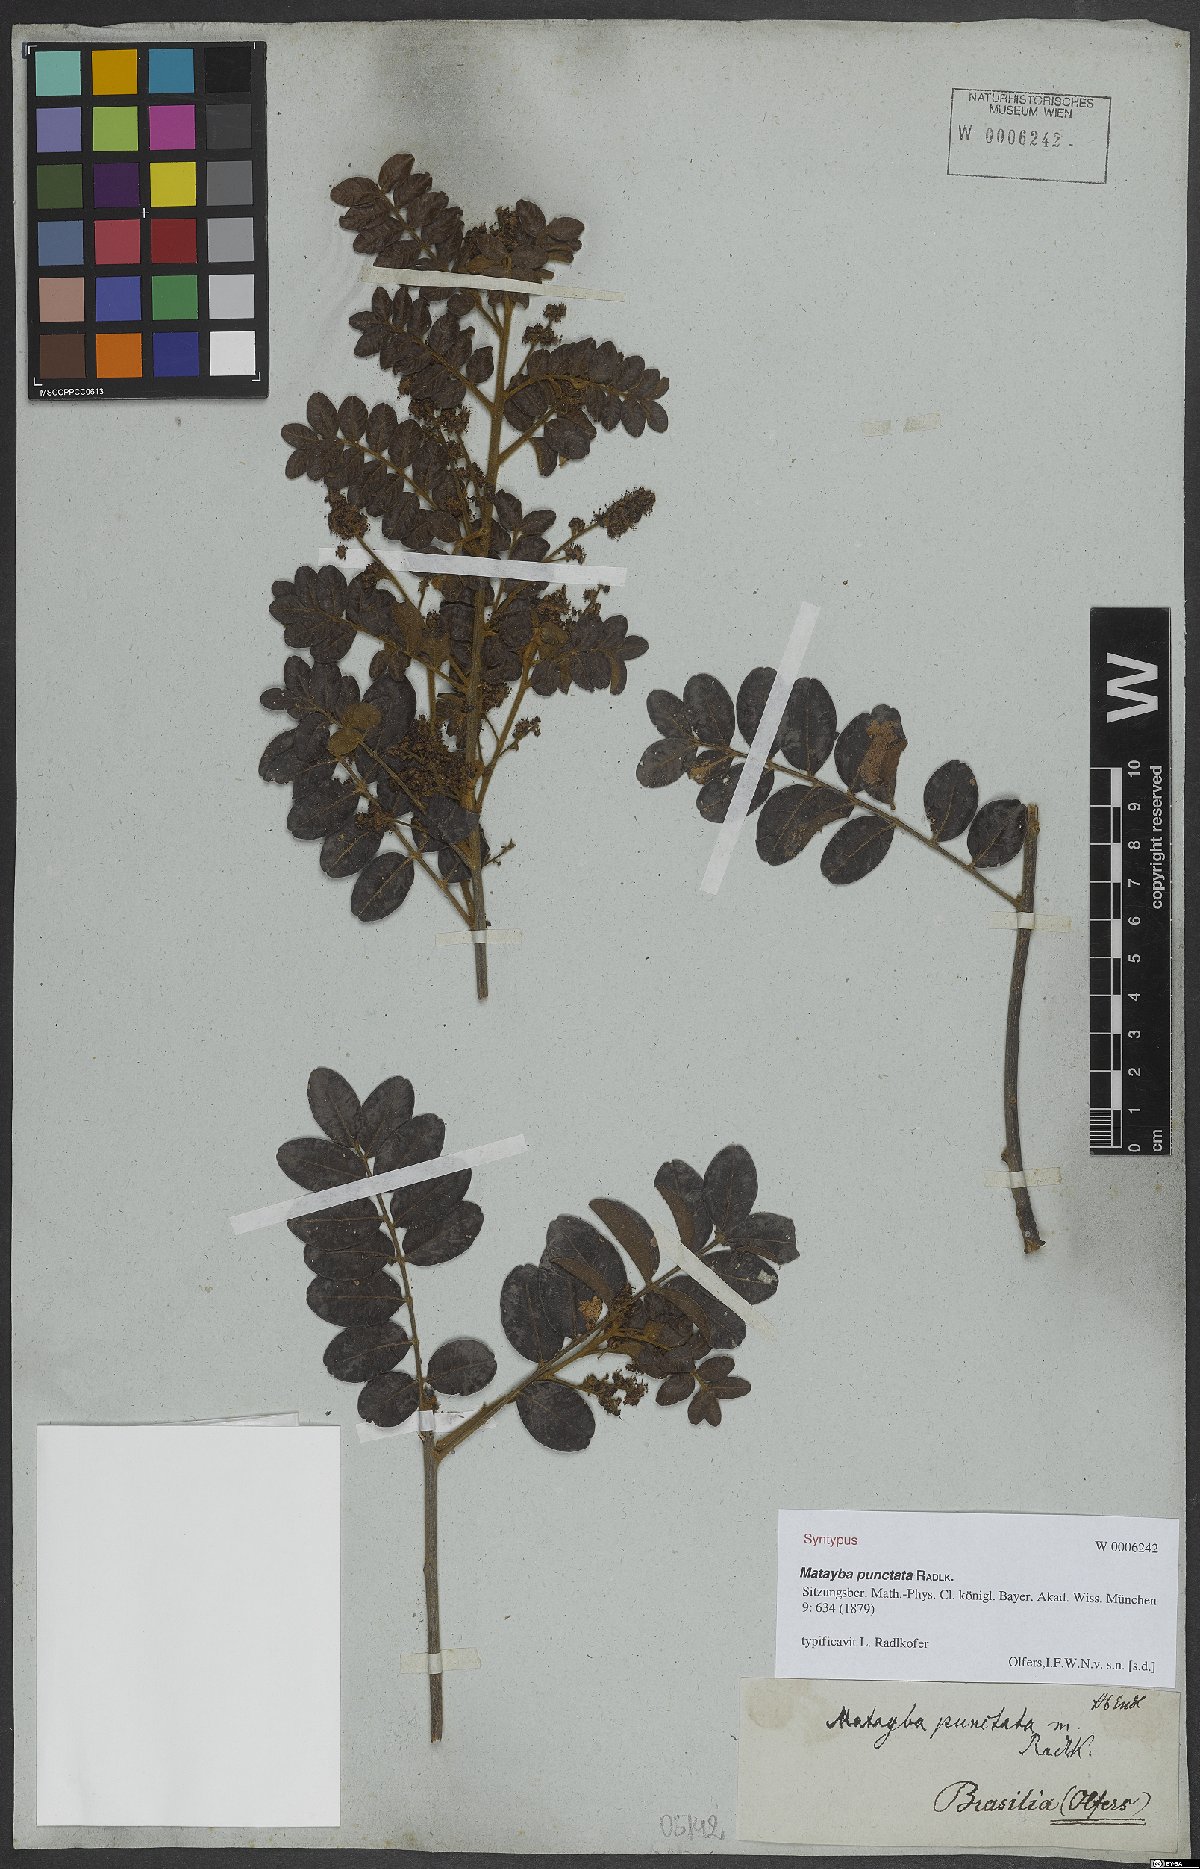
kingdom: Plantae
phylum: Tracheophyta
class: Magnoliopsida
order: Sapindales
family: Sapindaceae
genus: Matayba
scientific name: Matayba punctata
